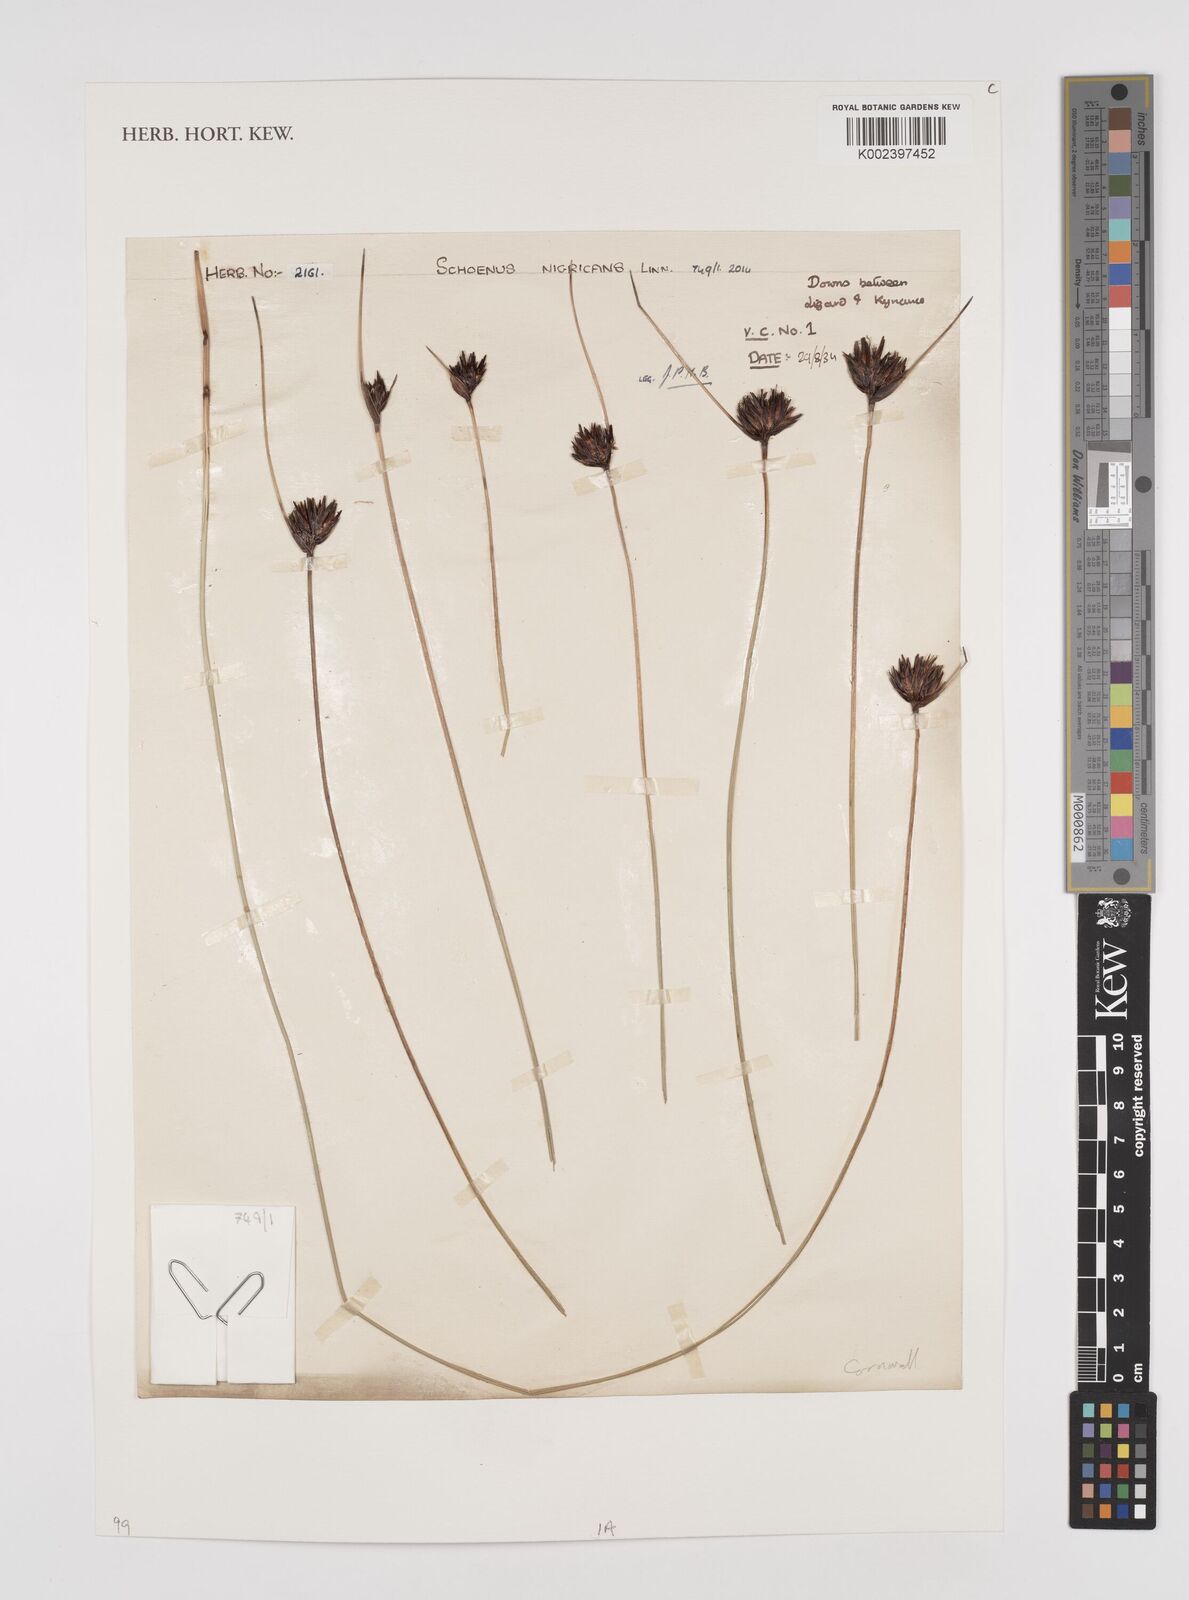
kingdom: Plantae
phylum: Tracheophyta
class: Liliopsida
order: Poales
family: Cyperaceae
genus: Schoenus
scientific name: Schoenus nigricans
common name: Black bog-rush
